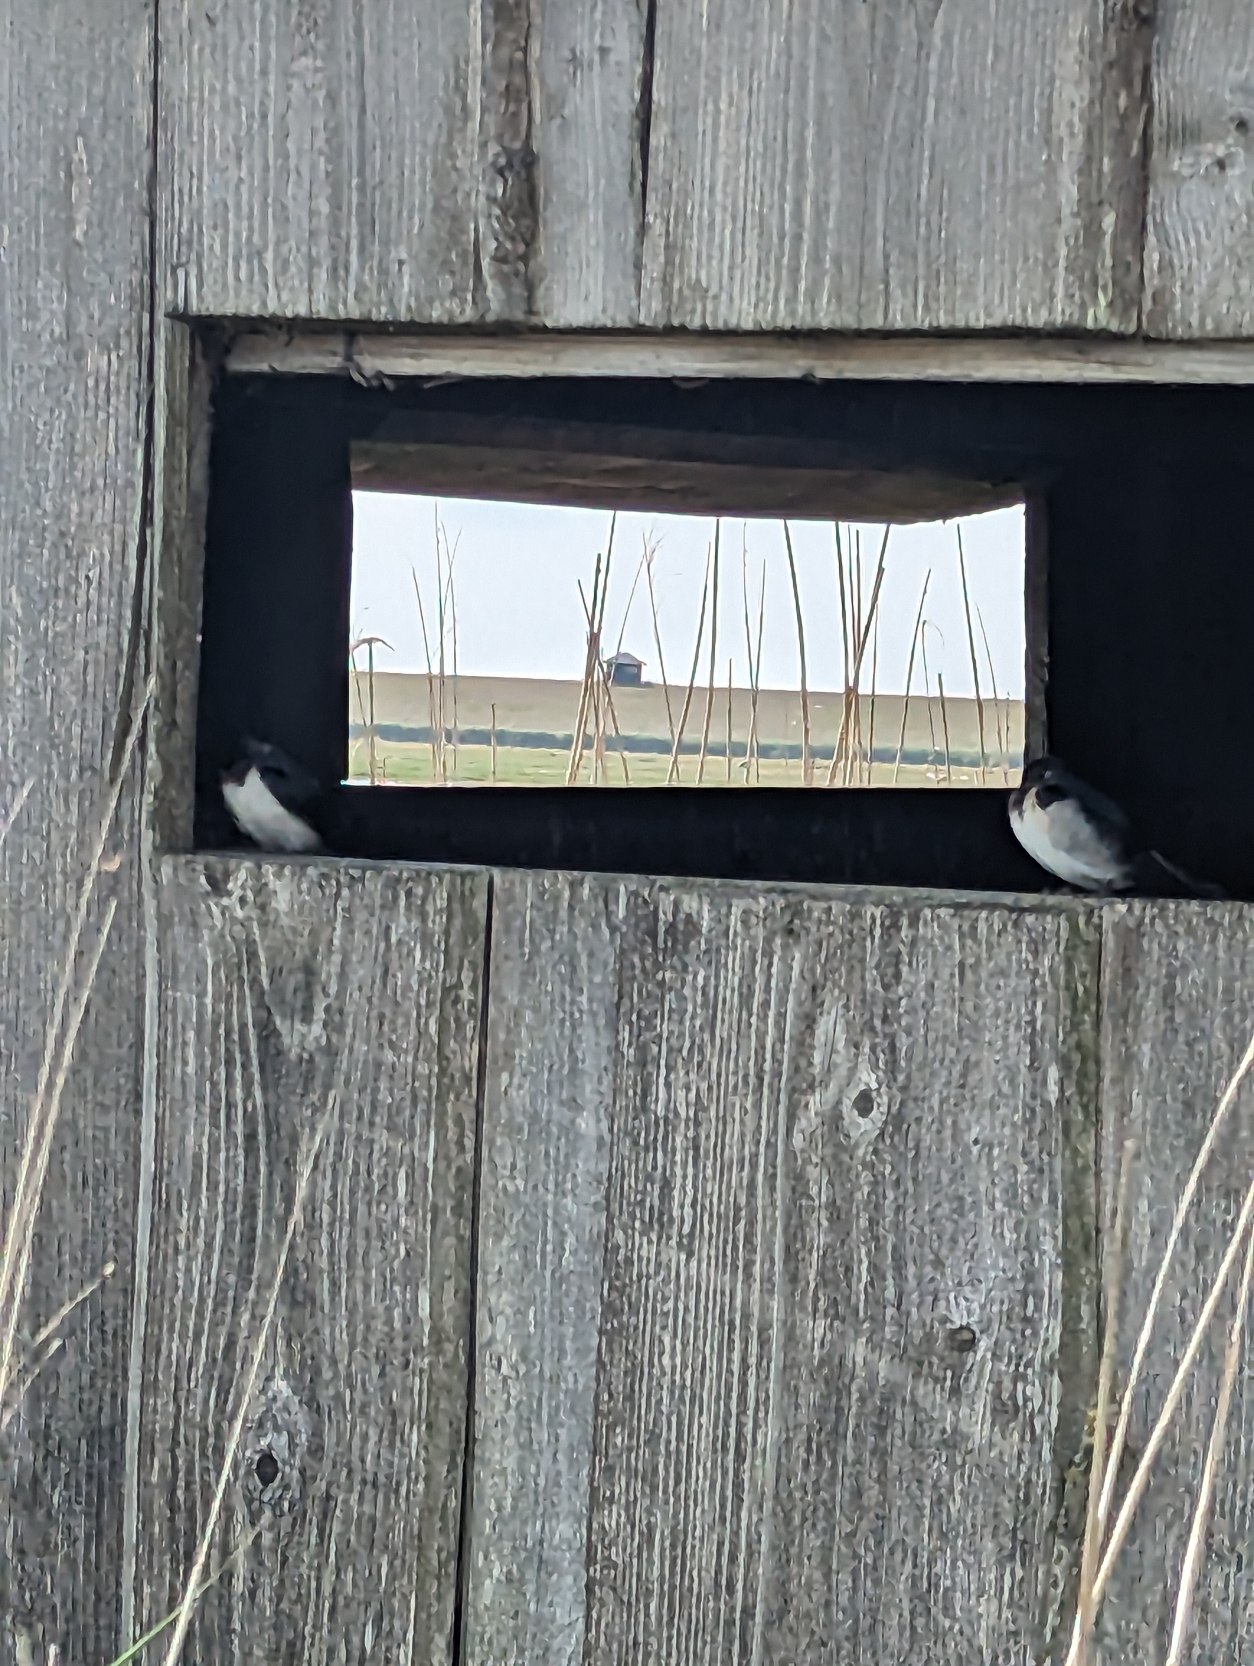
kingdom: Animalia
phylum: Chordata
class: Aves
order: Passeriformes
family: Hirundinidae
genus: Hirundo
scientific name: Hirundo rustica
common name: Landsvale
